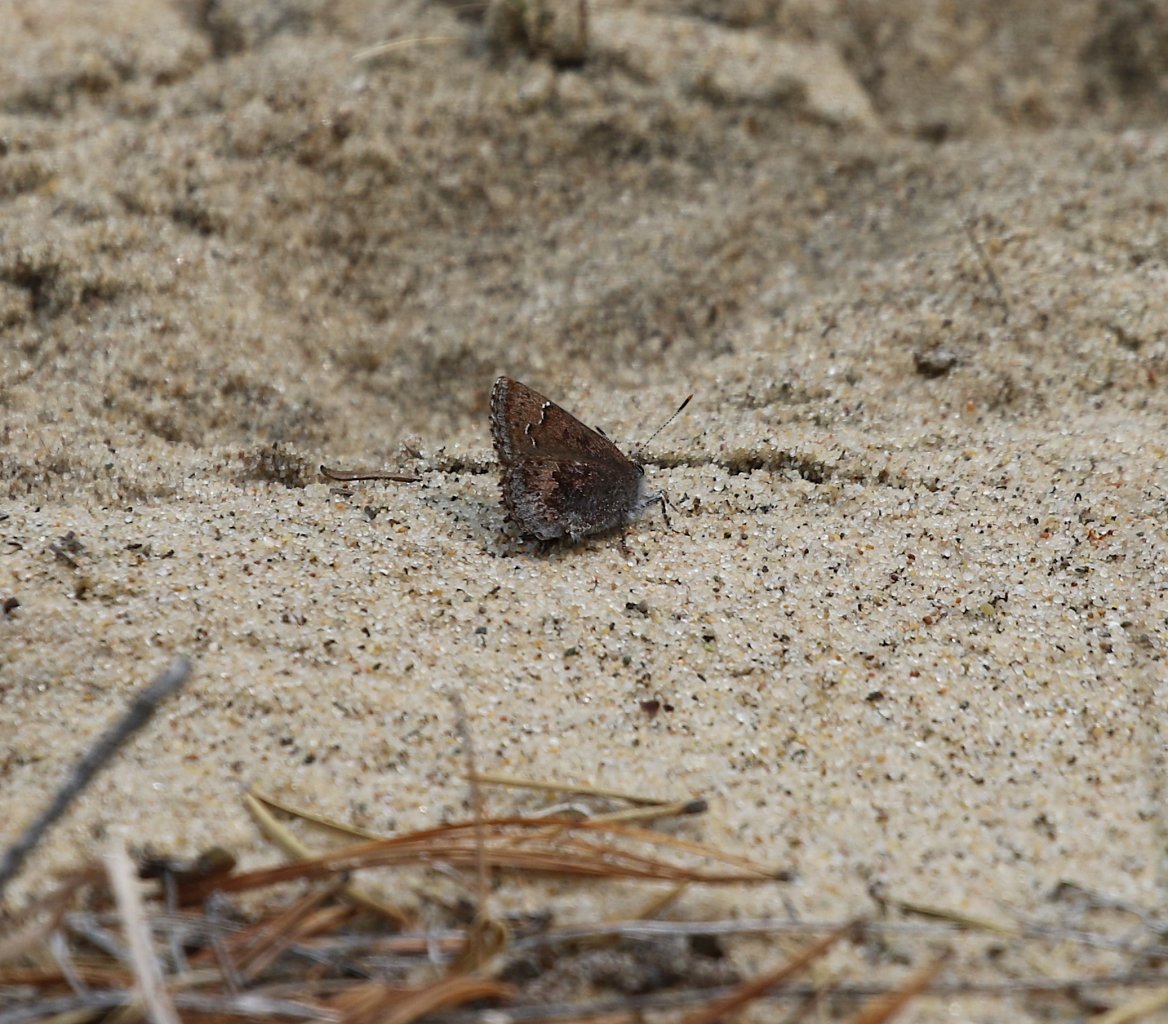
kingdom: Animalia
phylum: Arthropoda
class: Insecta
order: Lepidoptera
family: Lycaenidae
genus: Callophrys
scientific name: Callophrys polios
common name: Hoary Elfin
